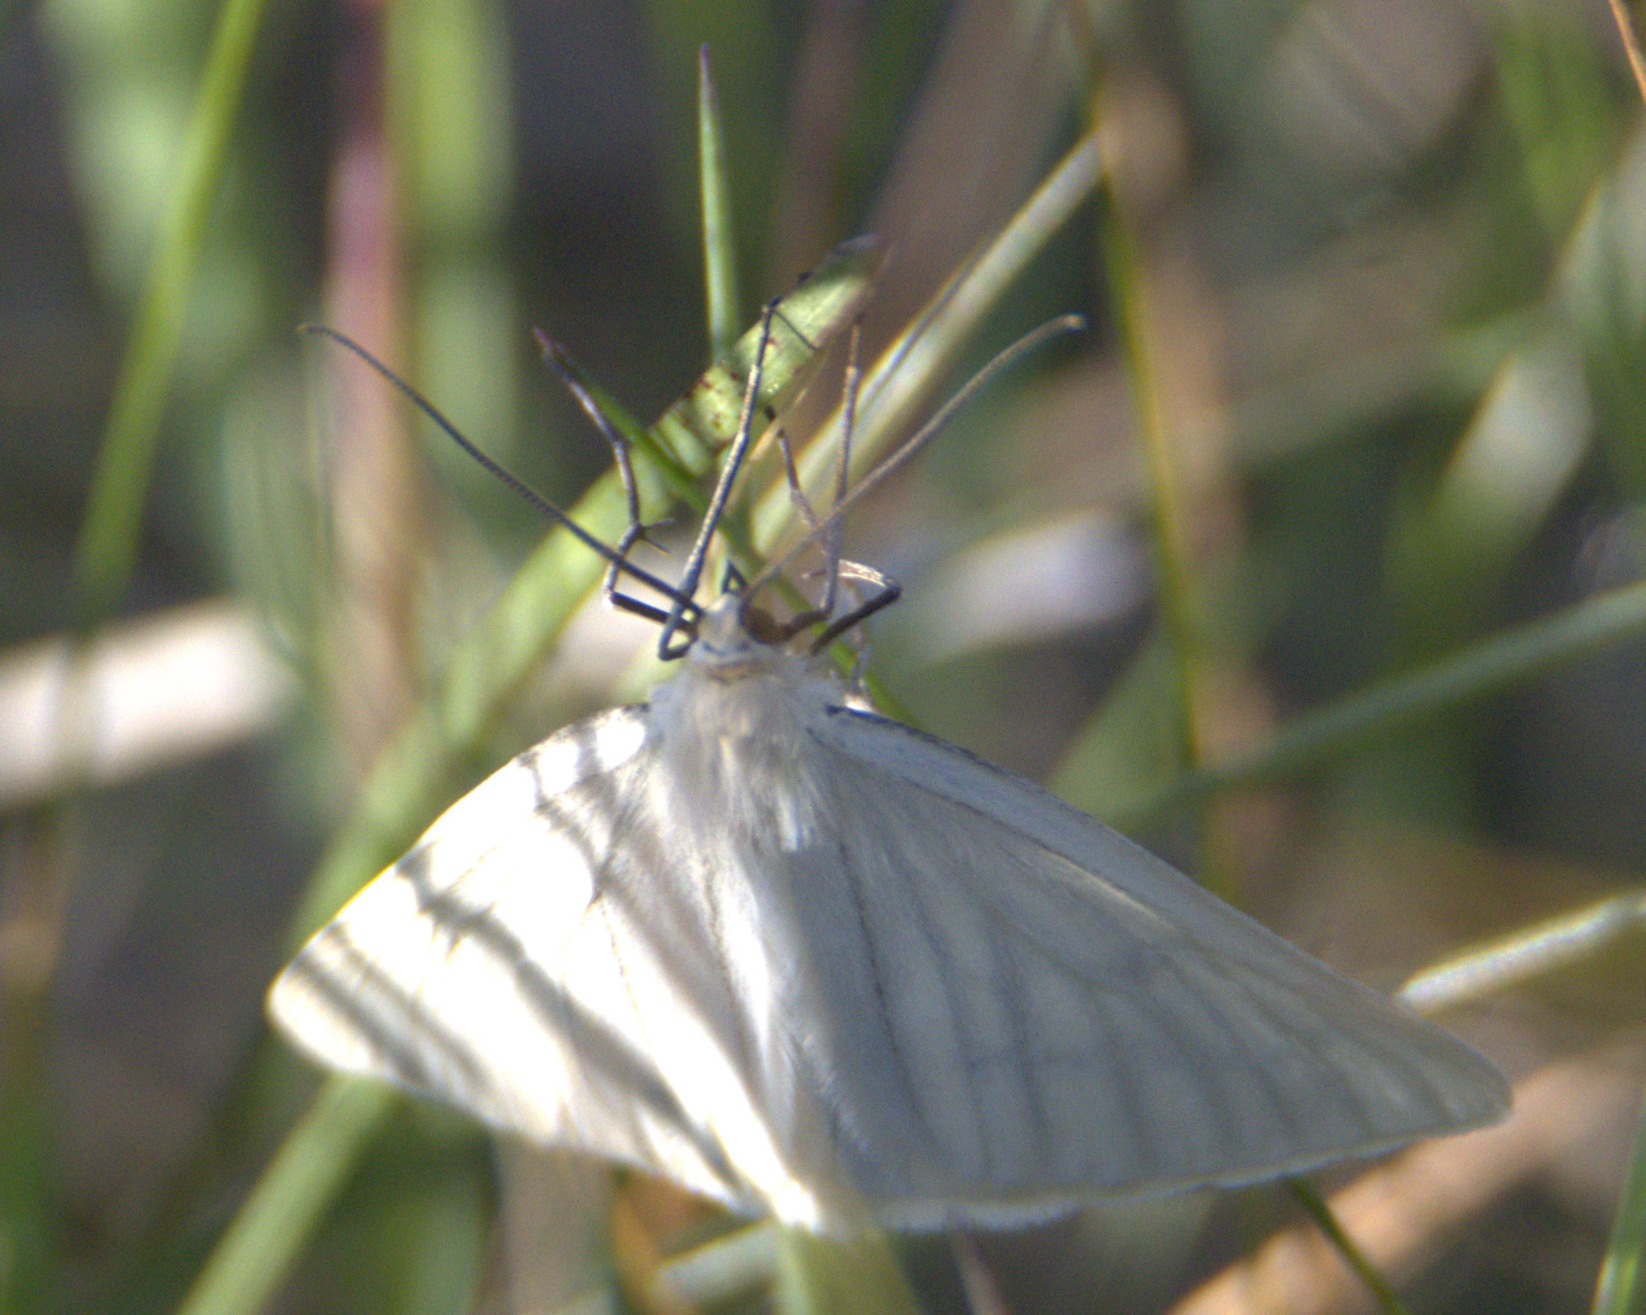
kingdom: Animalia
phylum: Arthropoda
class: Insecta
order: Lepidoptera
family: Geometridae
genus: Siona
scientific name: Siona lineata
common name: Hvidvingemåler
